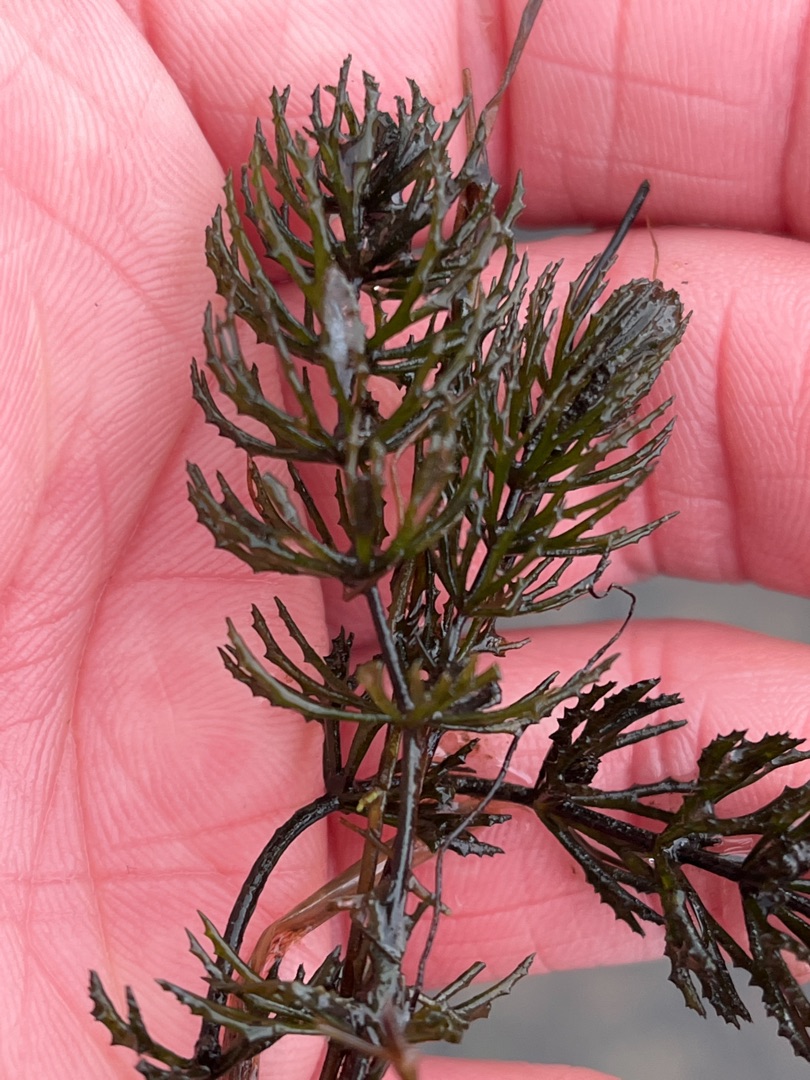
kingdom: Plantae
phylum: Tracheophyta
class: Magnoliopsida
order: Ceratophyllales
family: Ceratophyllaceae
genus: Ceratophyllum
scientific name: Ceratophyllum demersum
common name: Tornfrøet hornblad
